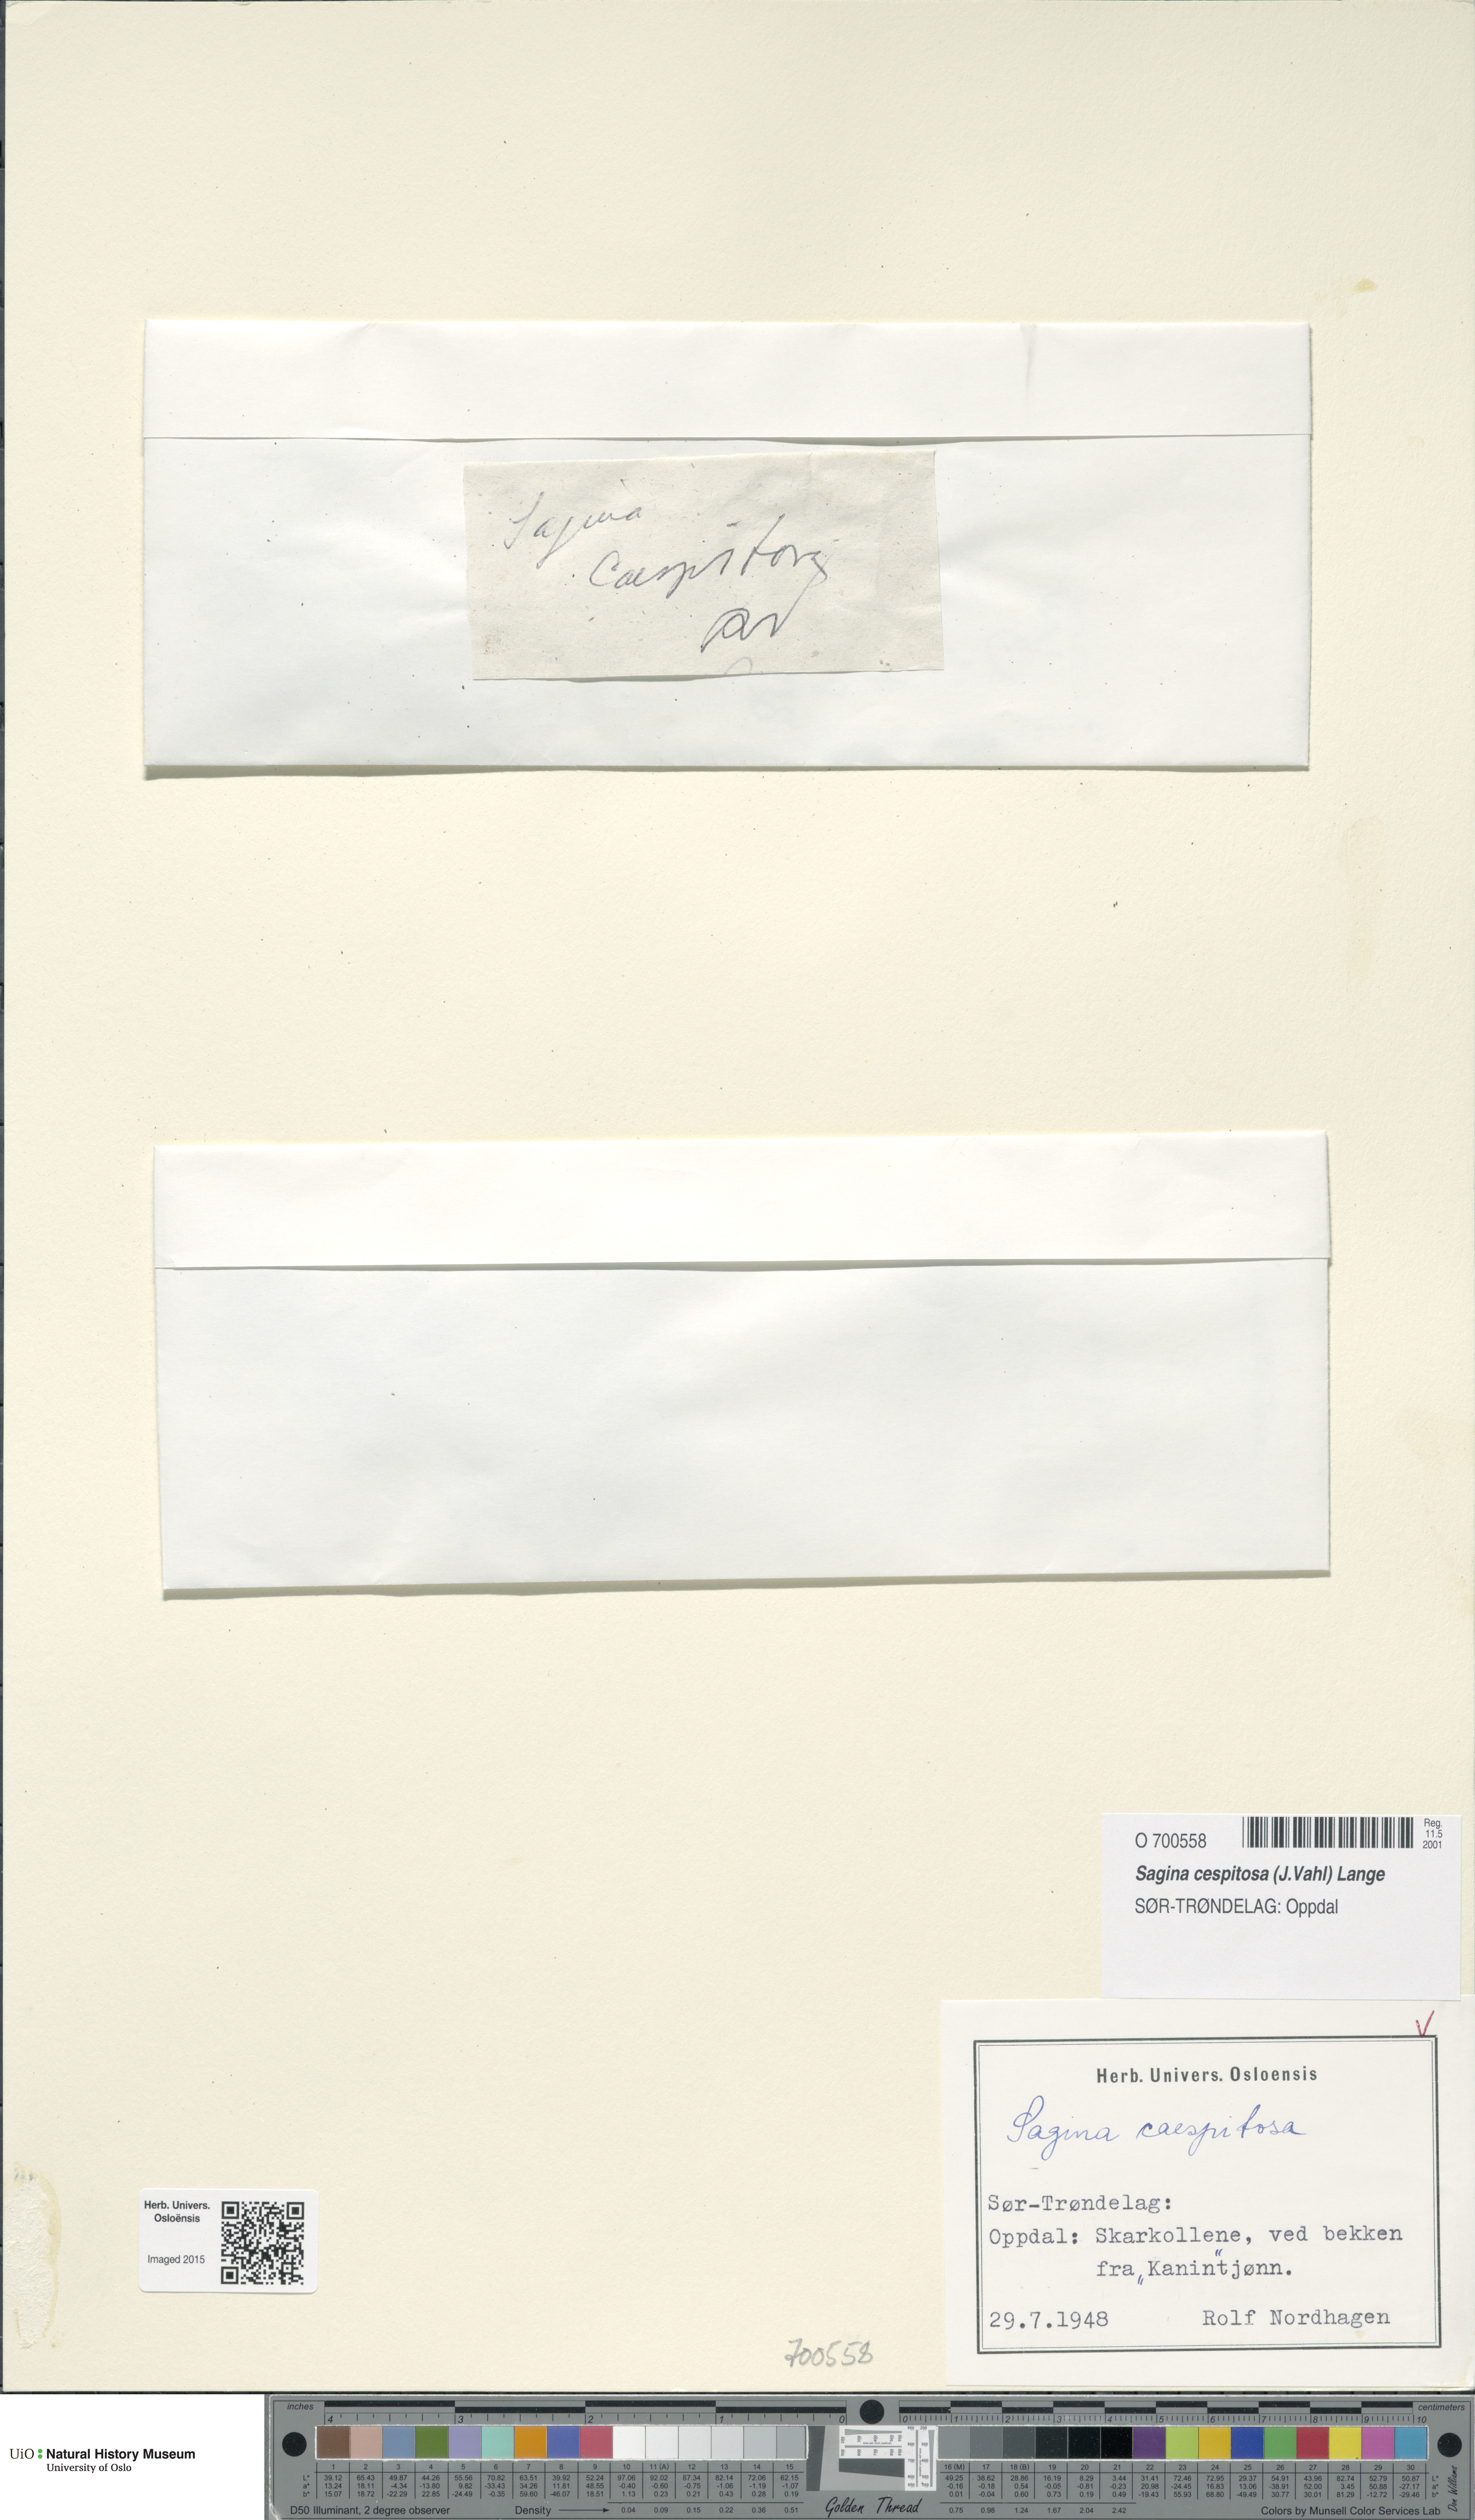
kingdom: Plantae
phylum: Tracheophyta
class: Magnoliopsida
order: Caryophyllales
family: Caryophyllaceae
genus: Sagina
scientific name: Sagina caespitosa
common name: Tufted pearlwort
